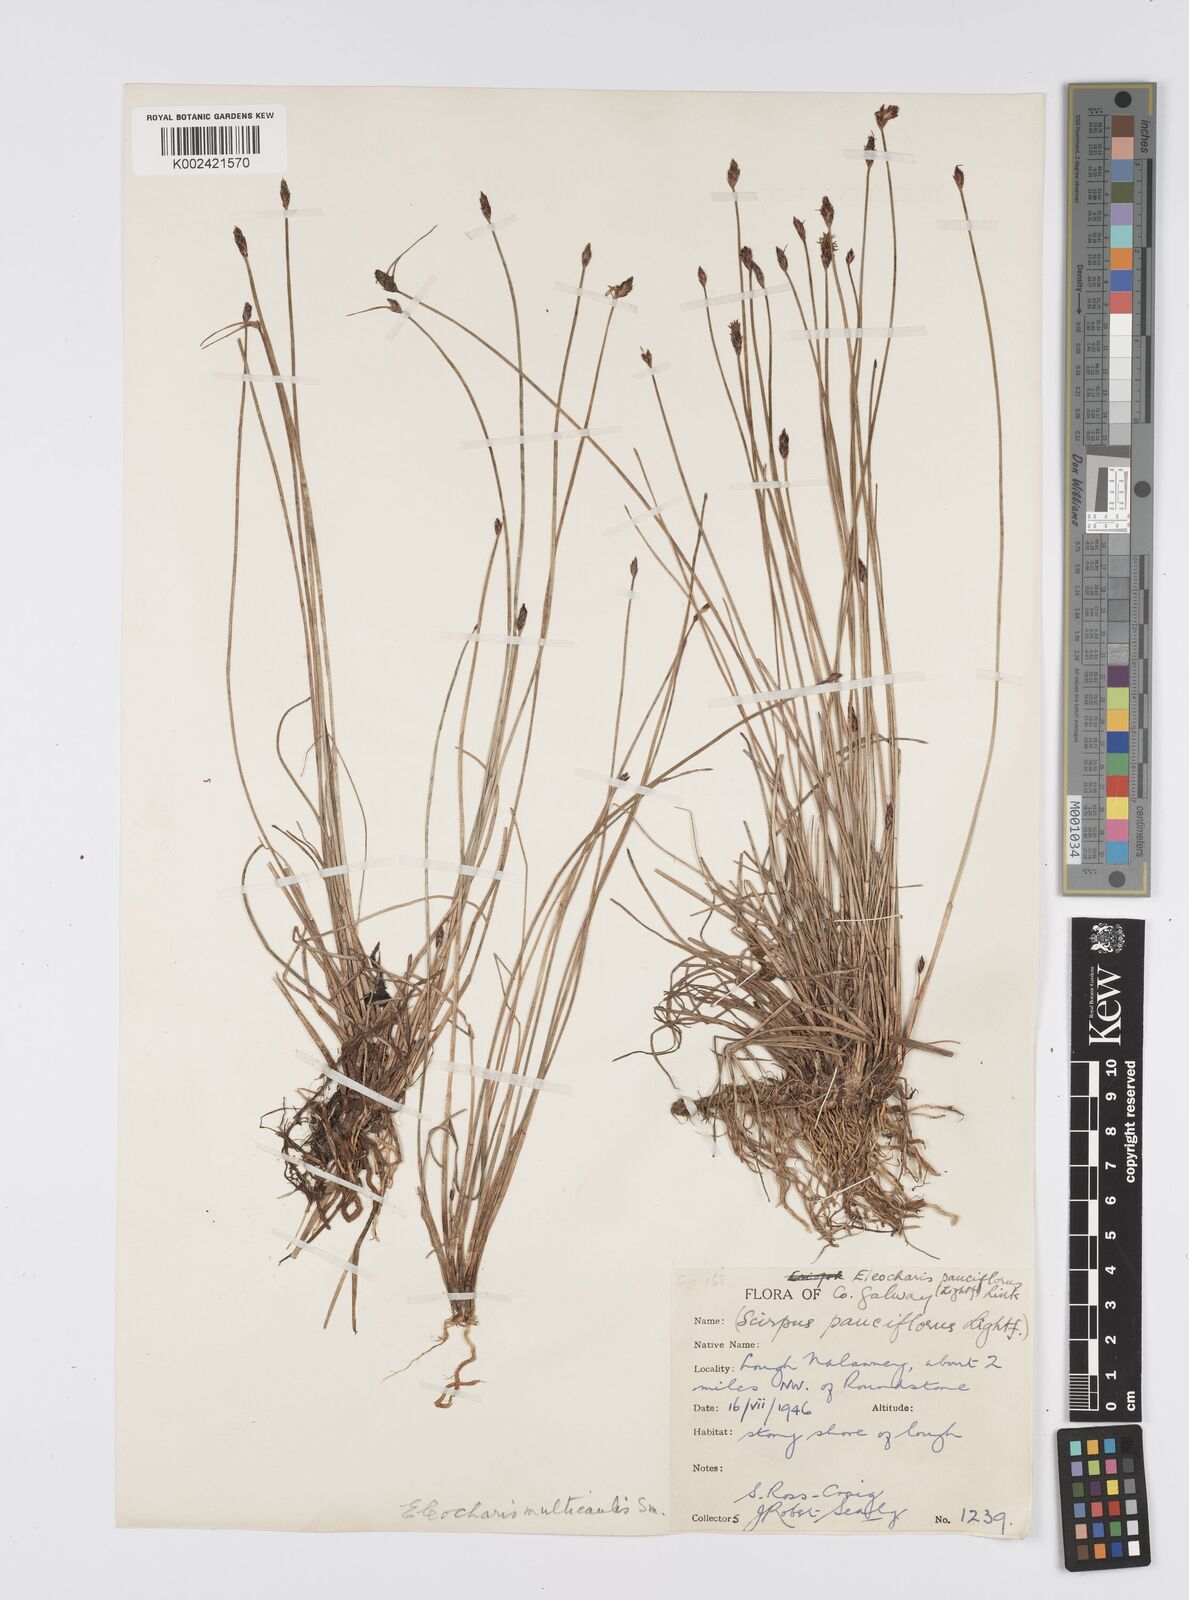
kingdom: Plantae
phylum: Tracheophyta
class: Liliopsida
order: Poales
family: Cyperaceae
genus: Eleocharis
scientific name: Eleocharis multicaulis
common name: Many-stalked spike-rush
